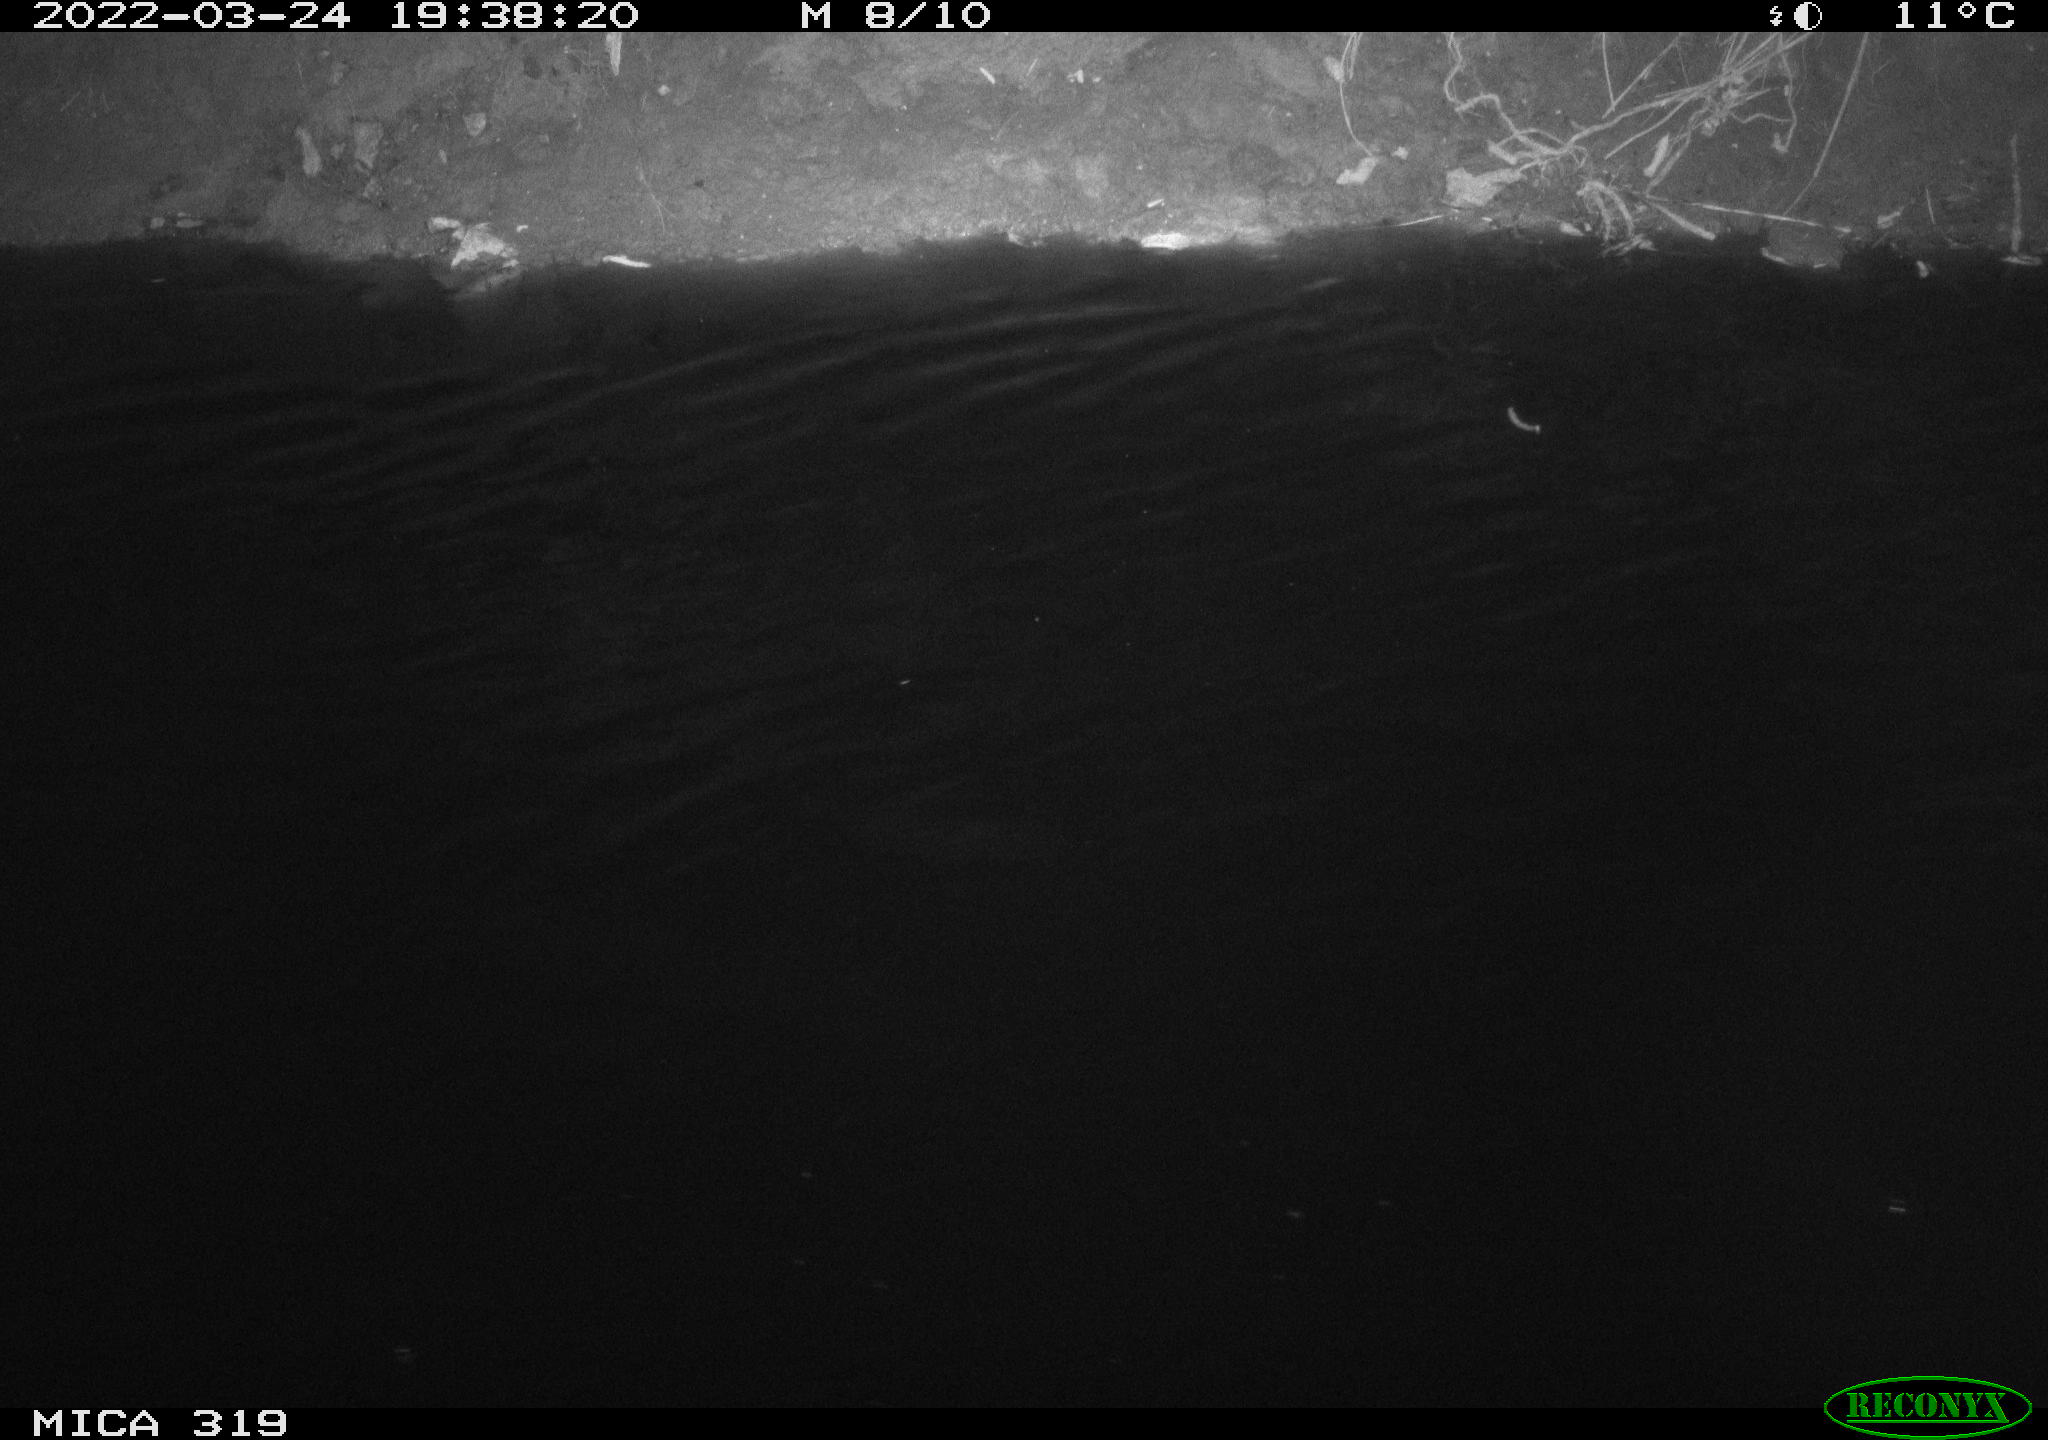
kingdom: Animalia
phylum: Chordata
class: Aves
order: Anseriformes
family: Anatidae
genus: Anas
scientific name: Anas platyrhynchos
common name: Mallard
